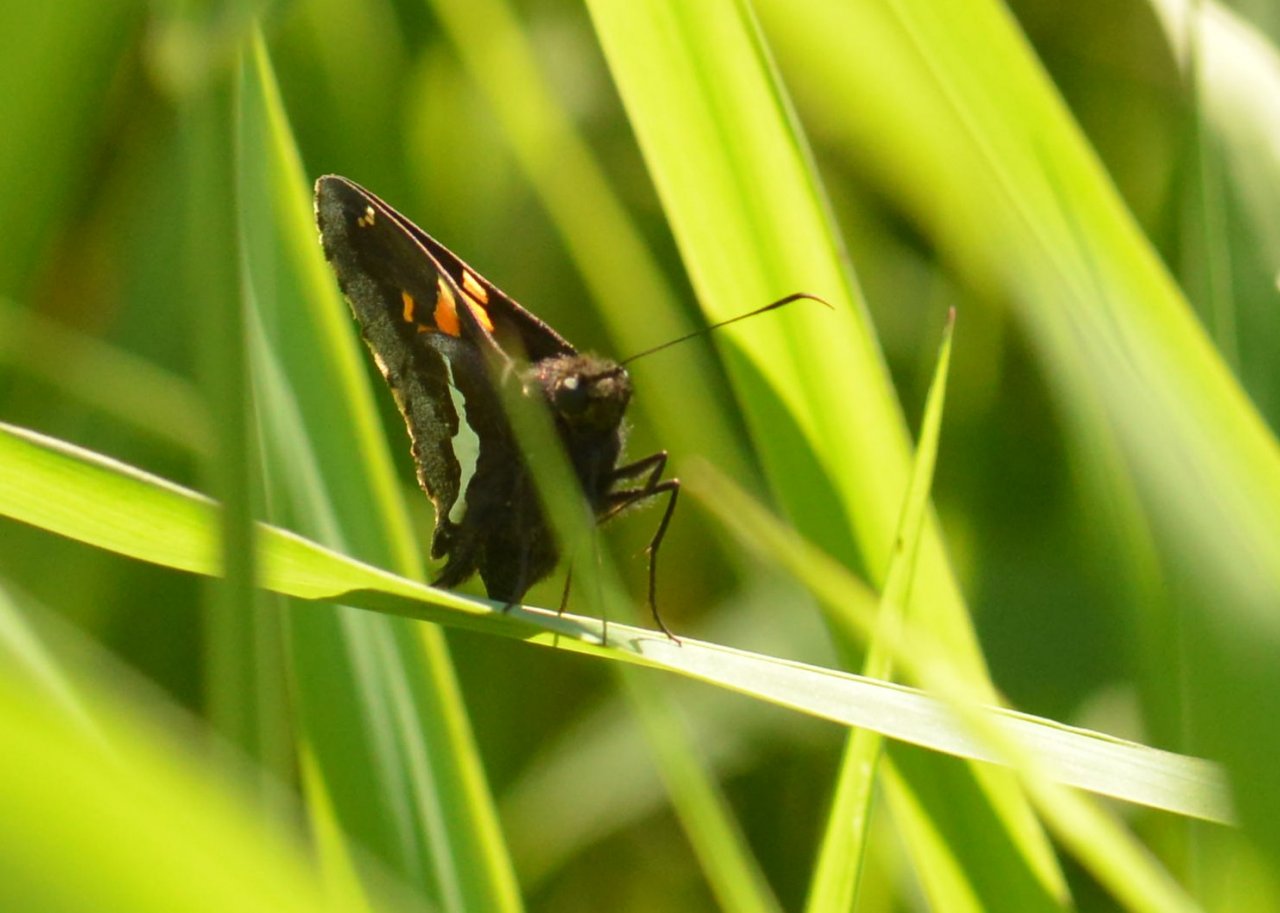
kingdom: Animalia
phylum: Arthropoda
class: Insecta
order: Lepidoptera
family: Hesperiidae
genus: Epargyreus
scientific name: Epargyreus clarus
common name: Silver-spotted Skipper
